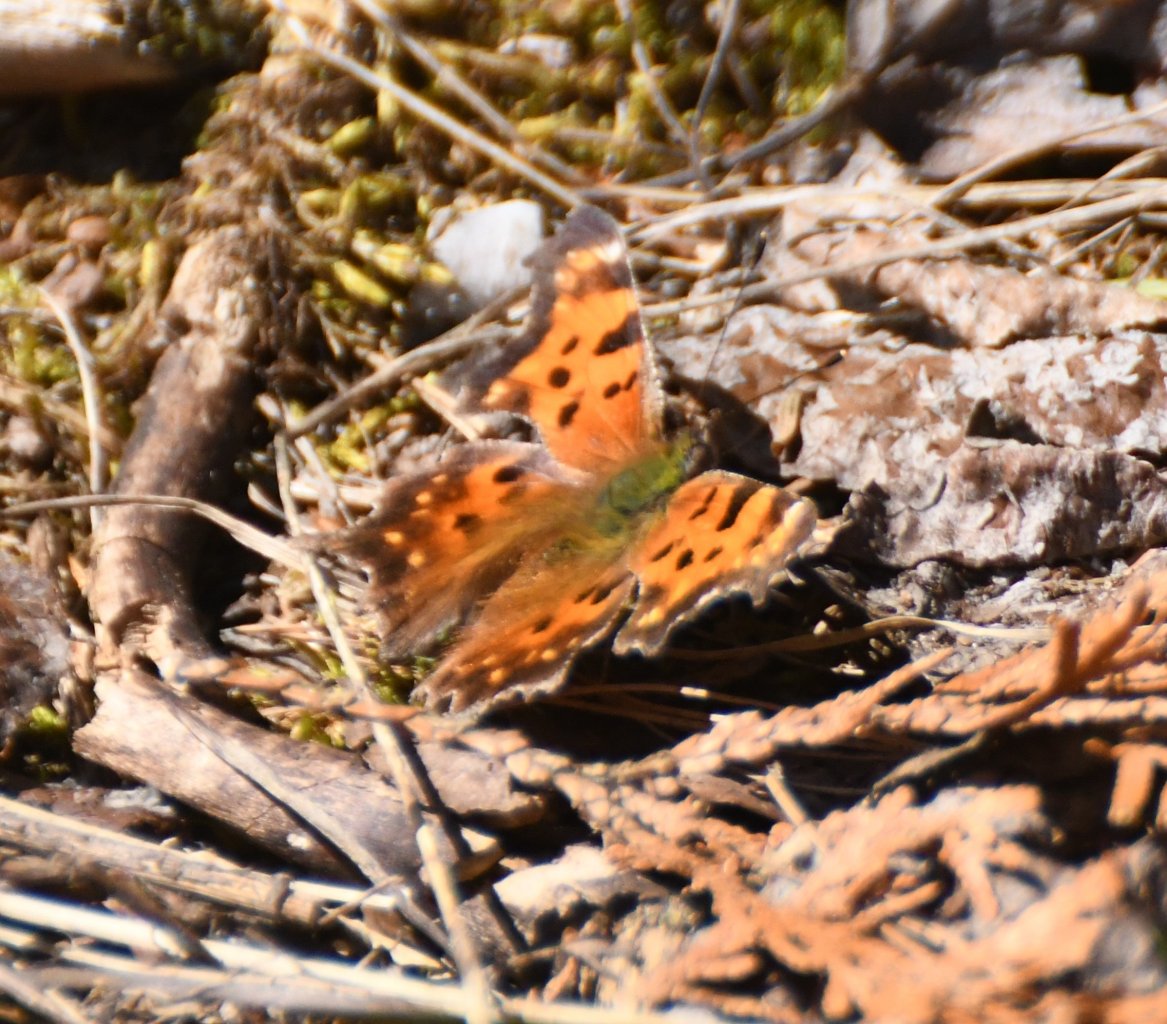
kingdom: Animalia
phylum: Arthropoda
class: Insecta
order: Lepidoptera
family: Nymphalidae
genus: Polygonia
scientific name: Polygonia faunus
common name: Green Comma
